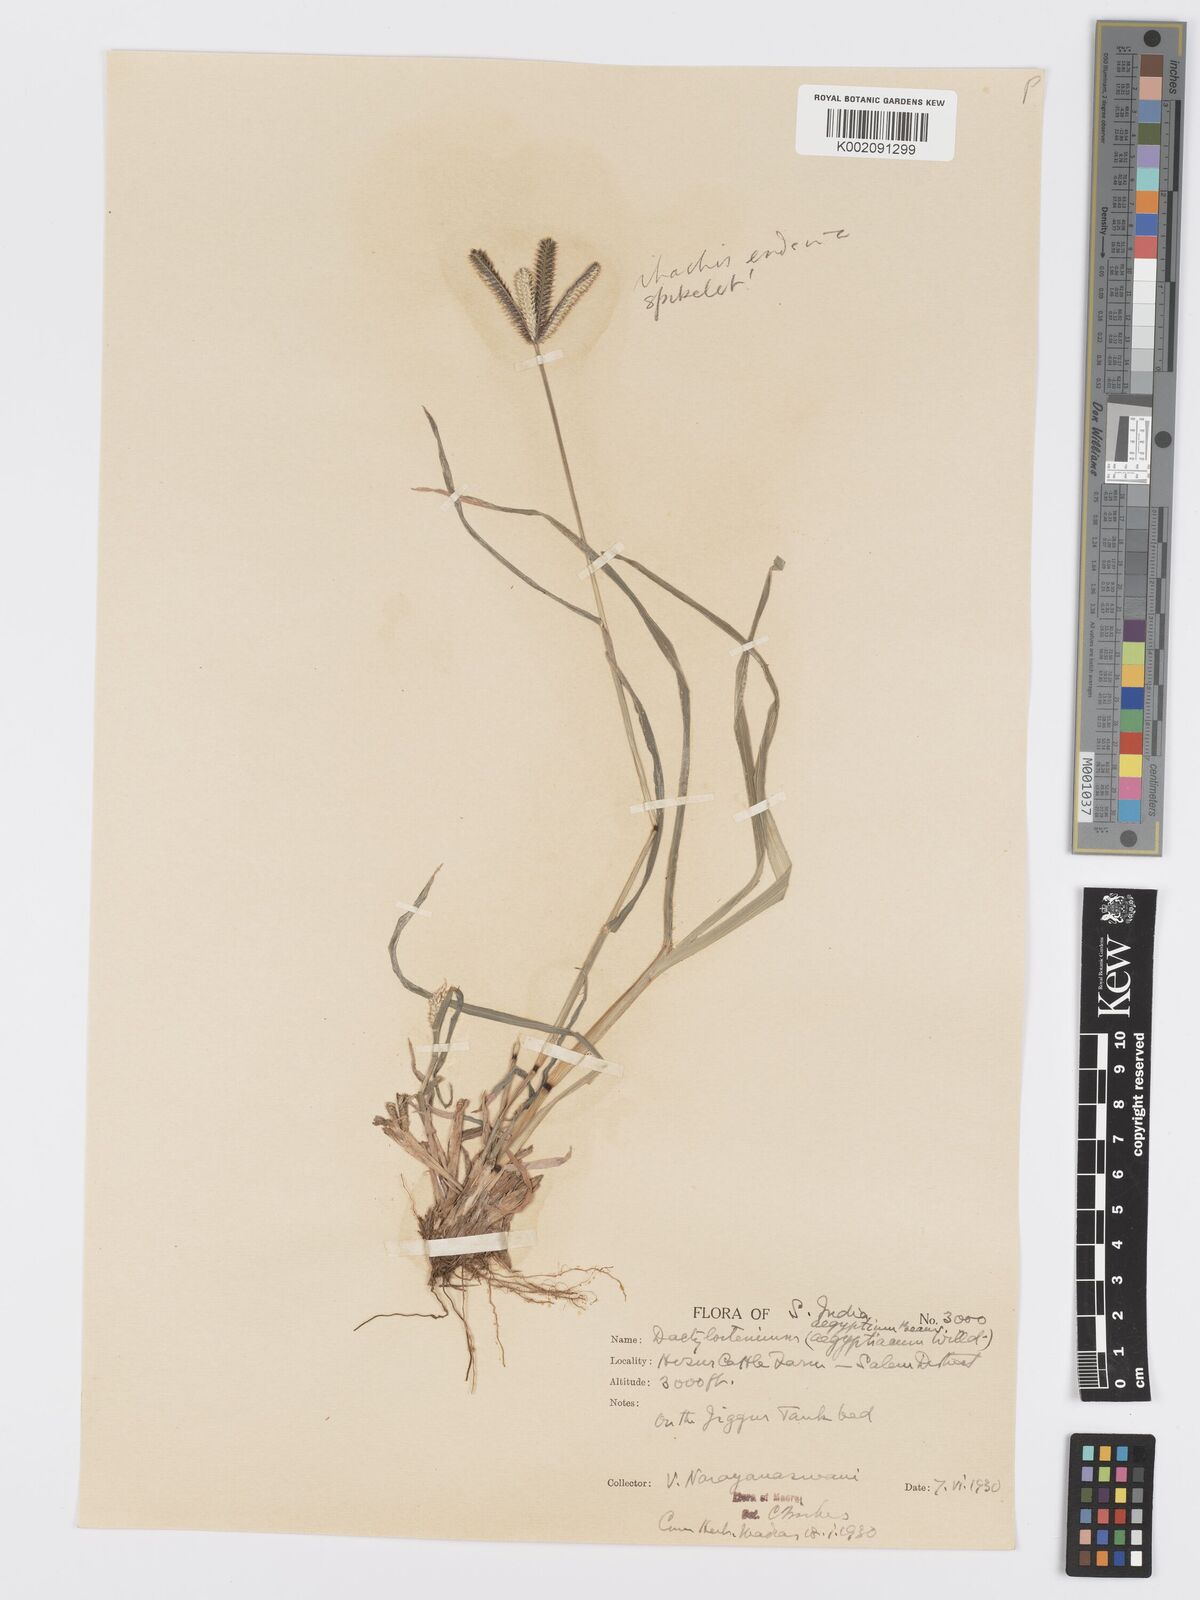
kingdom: Plantae
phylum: Tracheophyta
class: Liliopsida
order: Poales
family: Poaceae
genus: Dactyloctenium
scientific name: Dactyloctenium aegyptium
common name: Egyptian grass
